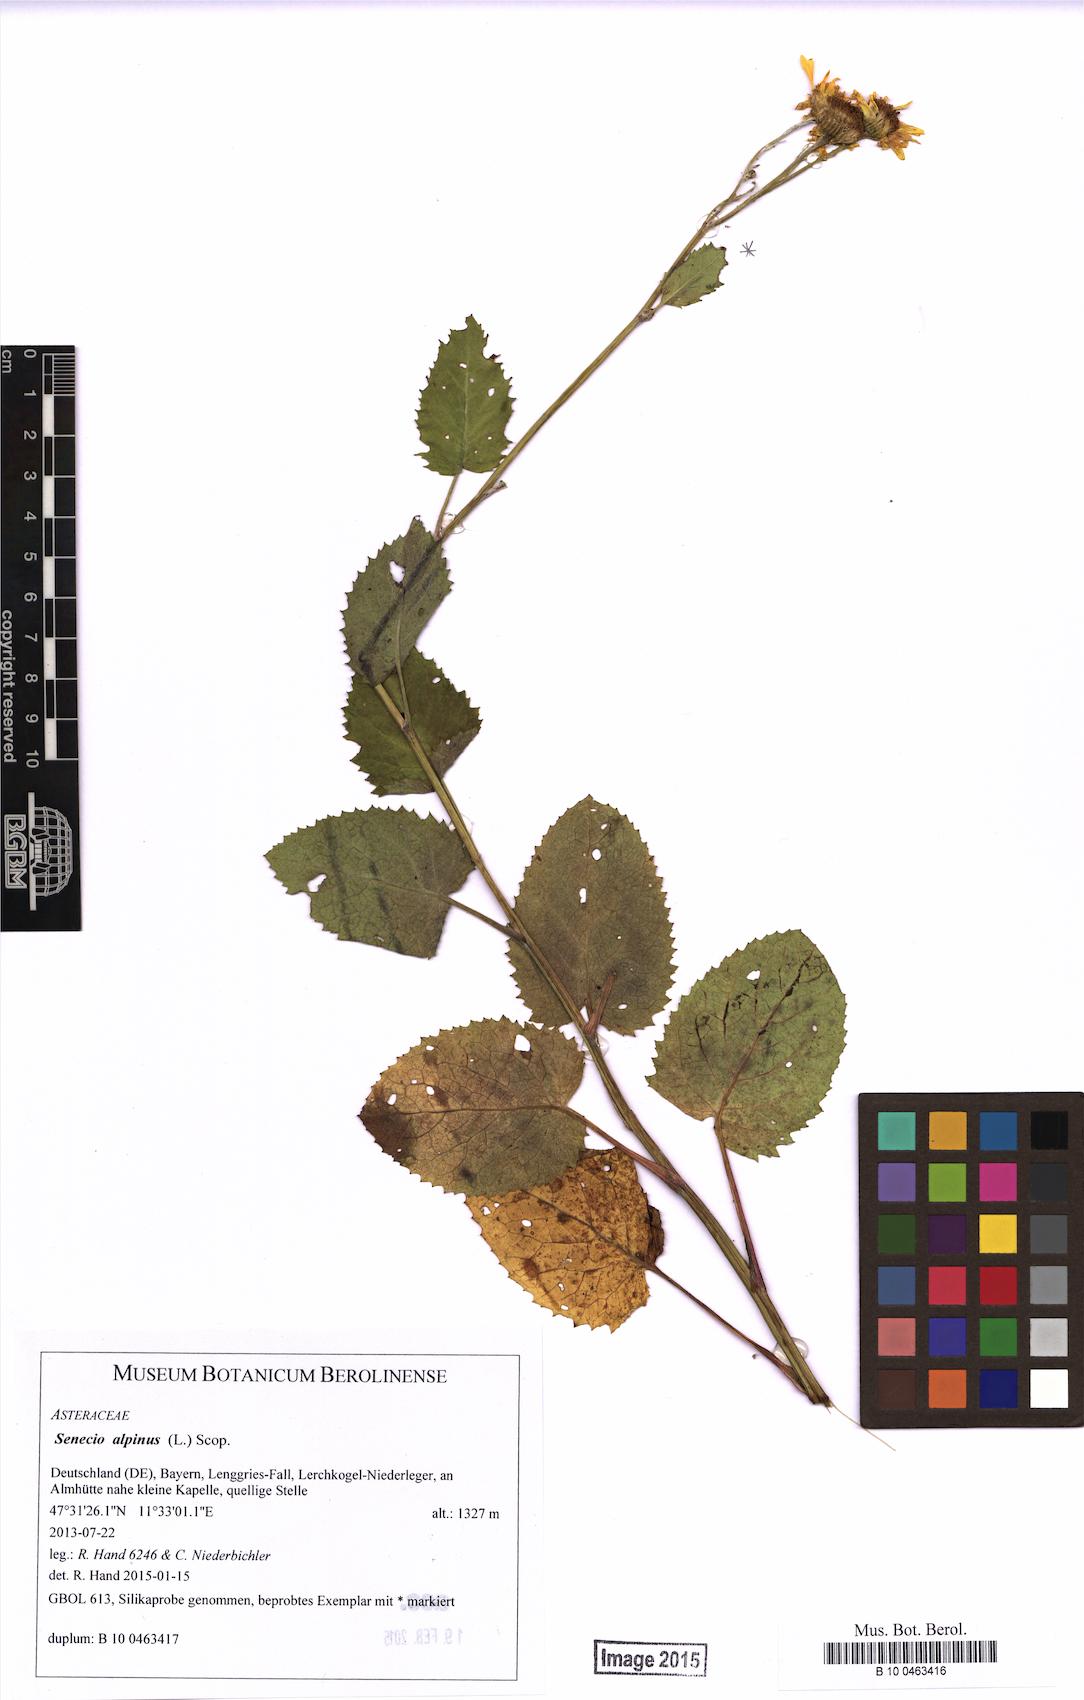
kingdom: Plantae
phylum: Tracheophyta
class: Magnoliopsida
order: Asterales
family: Asteraceae
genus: Jacobaea
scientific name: Jacobaea alpina
